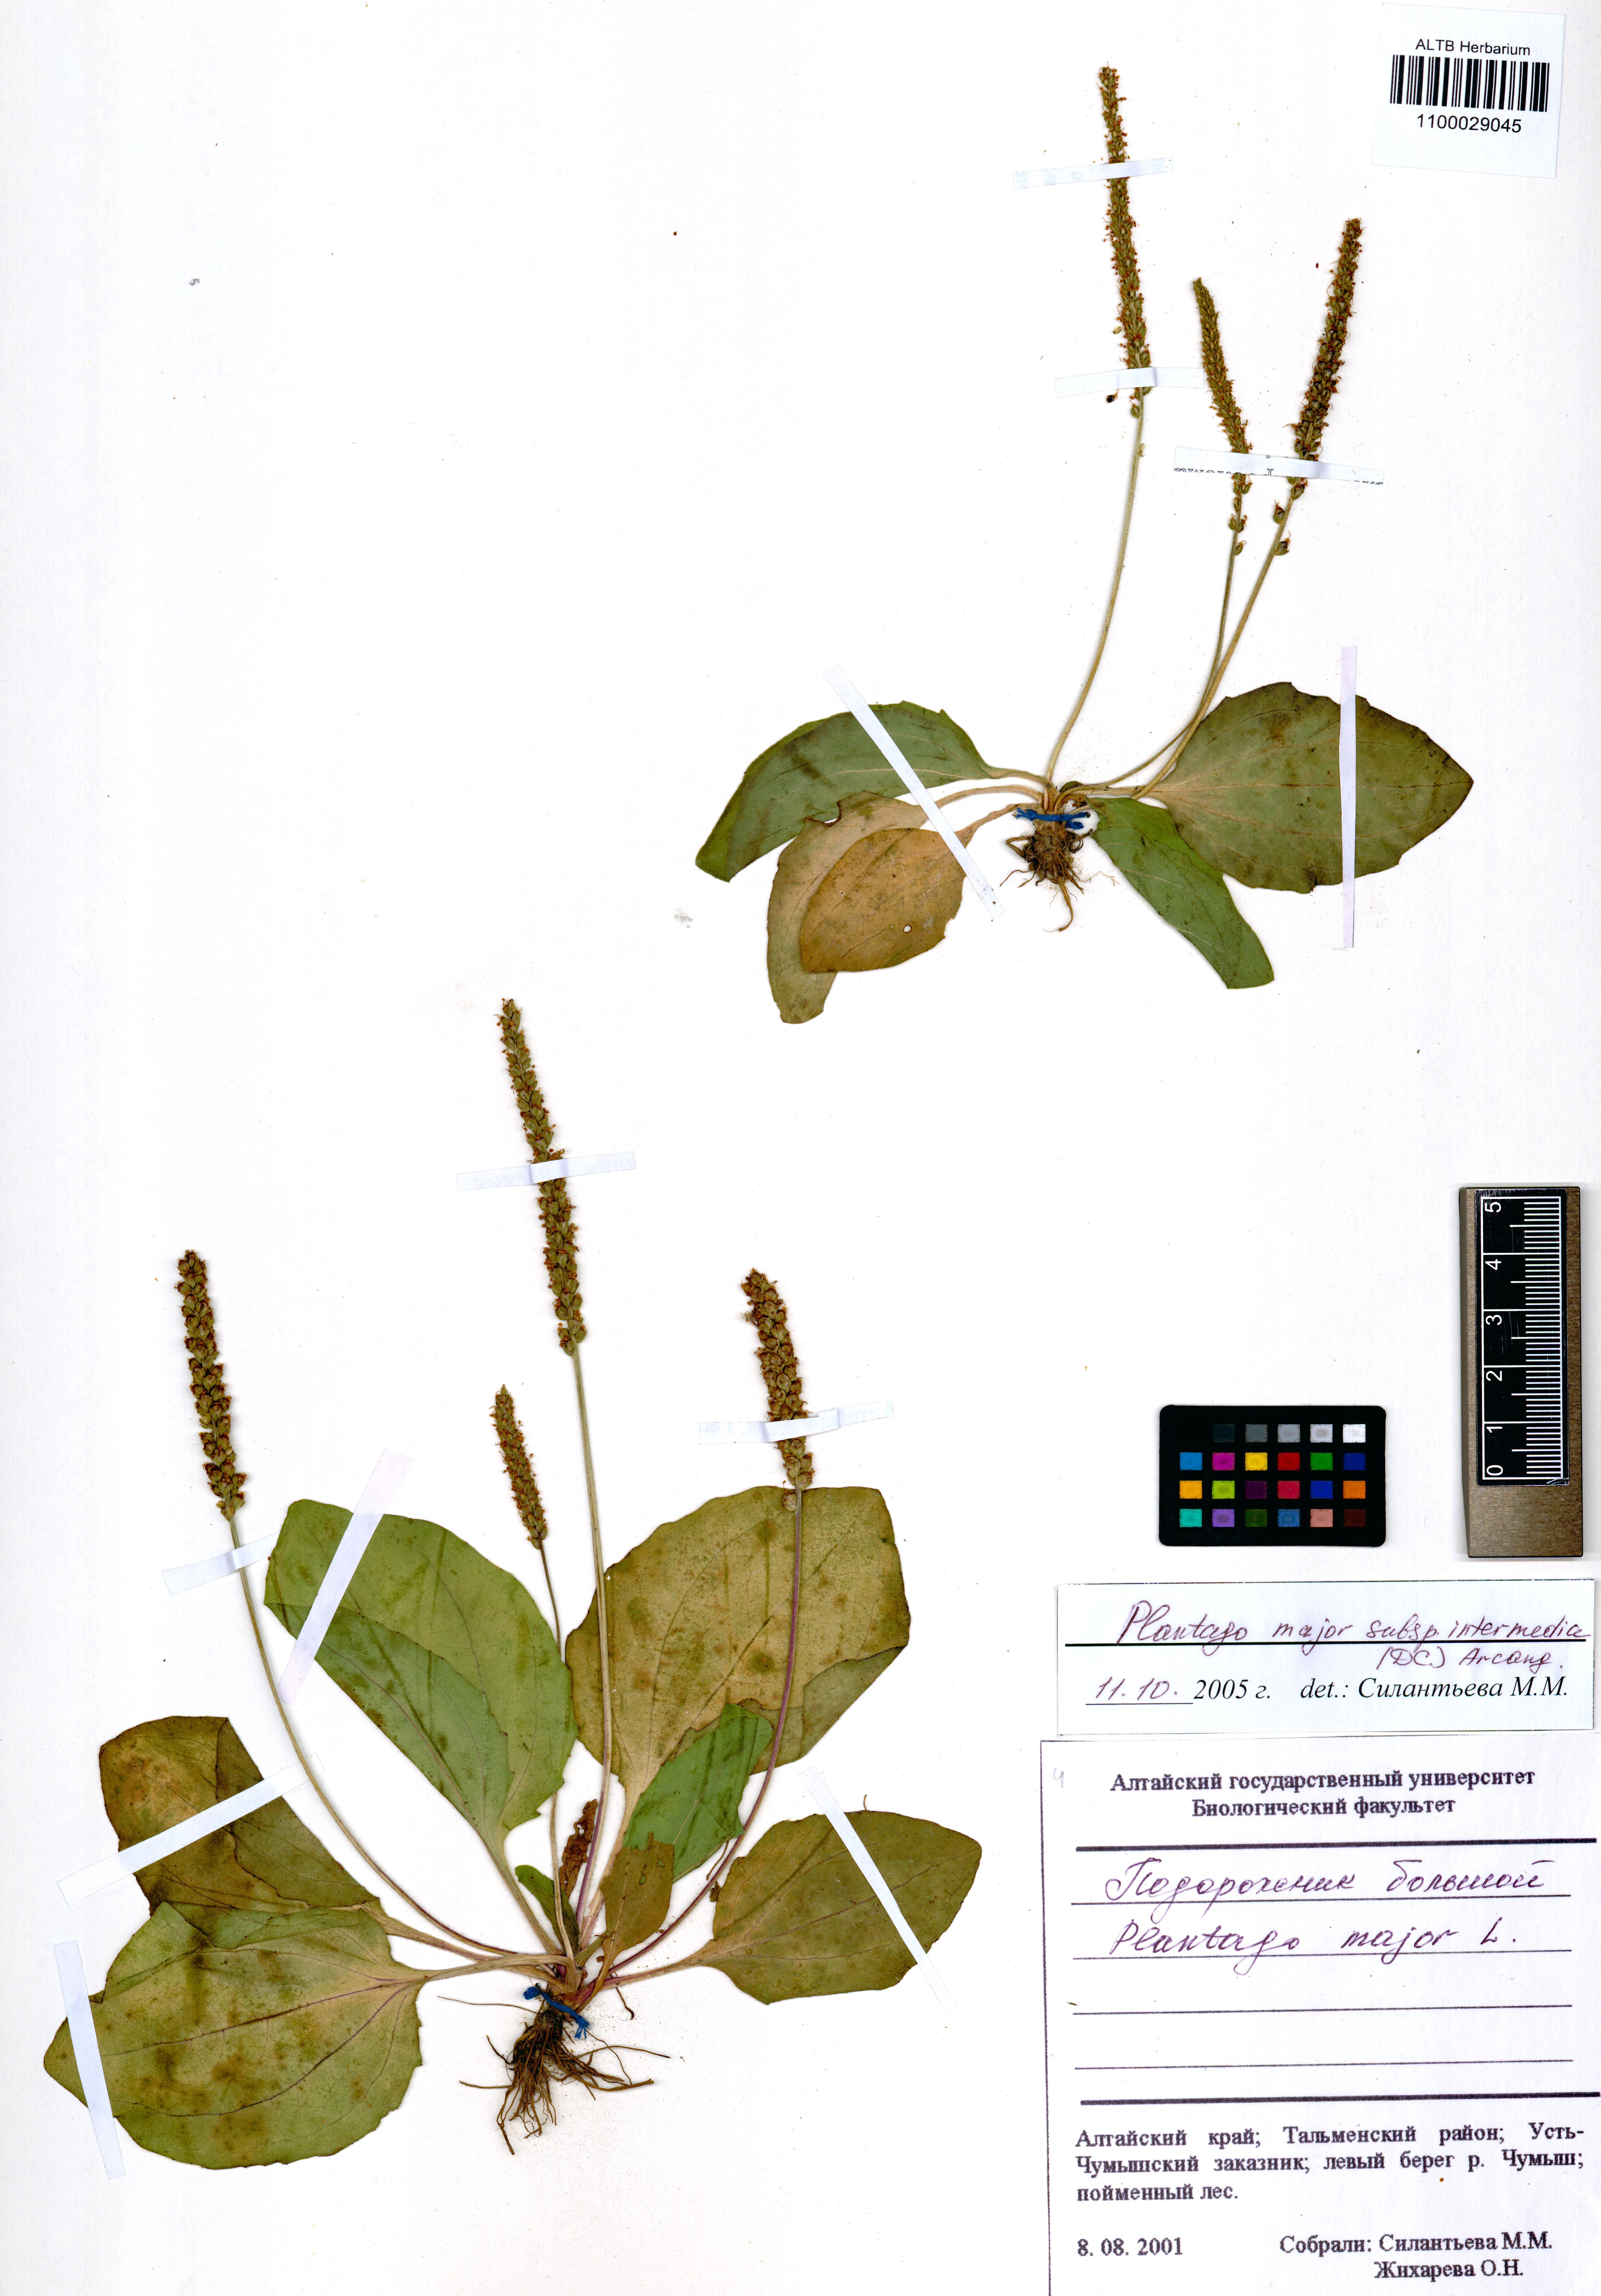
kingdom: Plantae
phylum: Tracheophyta
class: Magnoliopsida
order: Lamiales
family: Plantaginaceae
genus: Plantago
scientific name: Plantago uliginosa
